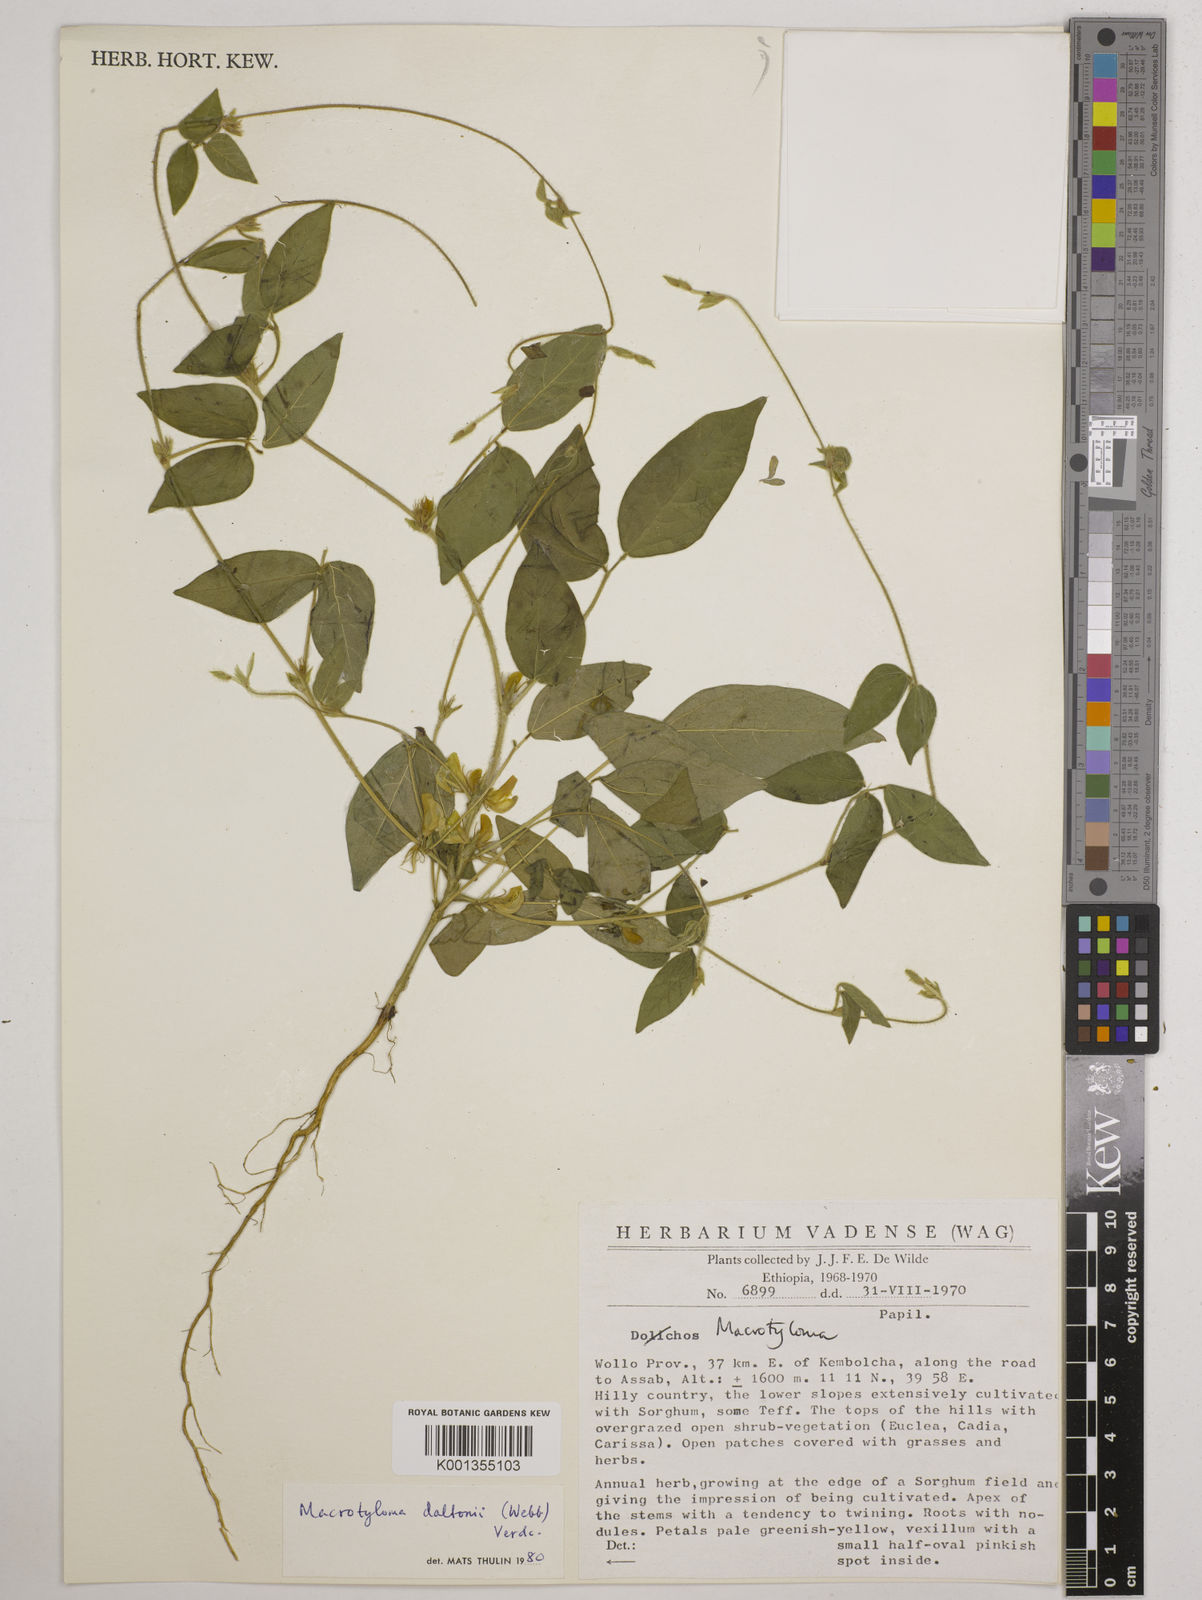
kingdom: Plantae
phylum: Tracheophyta
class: Magnoliopsida
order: Fabales
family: Fabaceae
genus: Macrotyloma
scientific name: Macrotyloma daltonii
